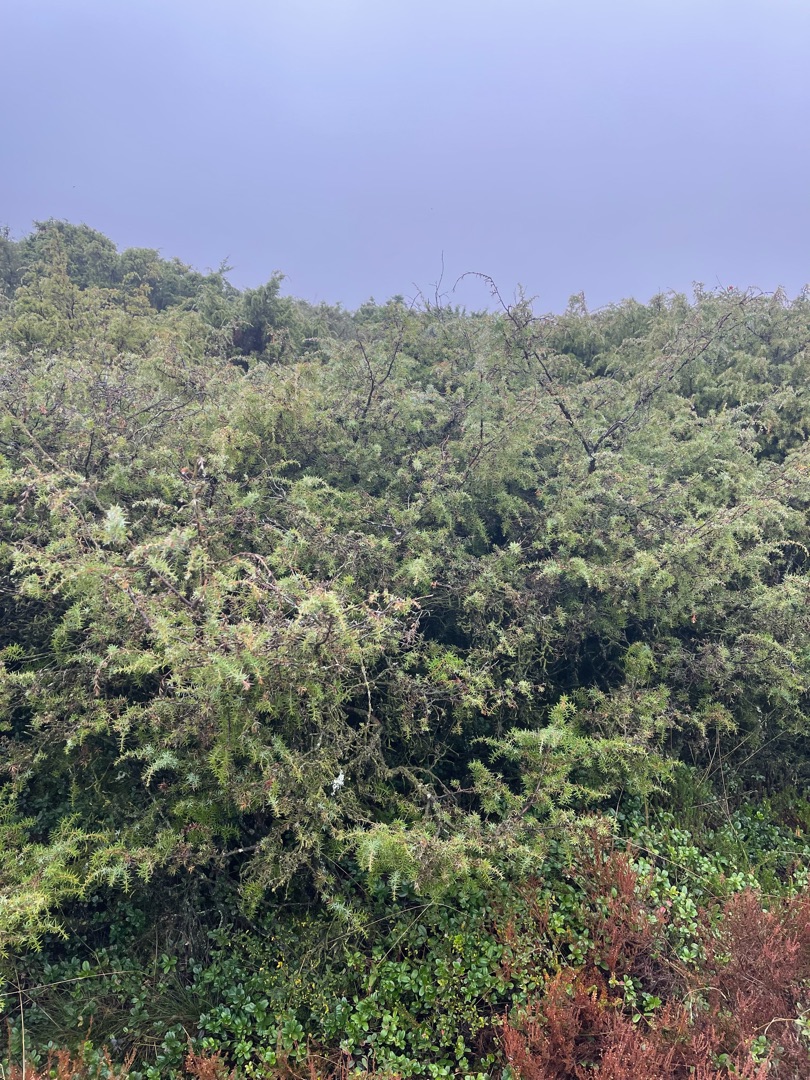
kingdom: Plantae
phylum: Tracheophyta
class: Pinopsida
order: Pinales
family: Cupressaceae
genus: Juniperus
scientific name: Juniperus communis
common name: Almindelig ene
